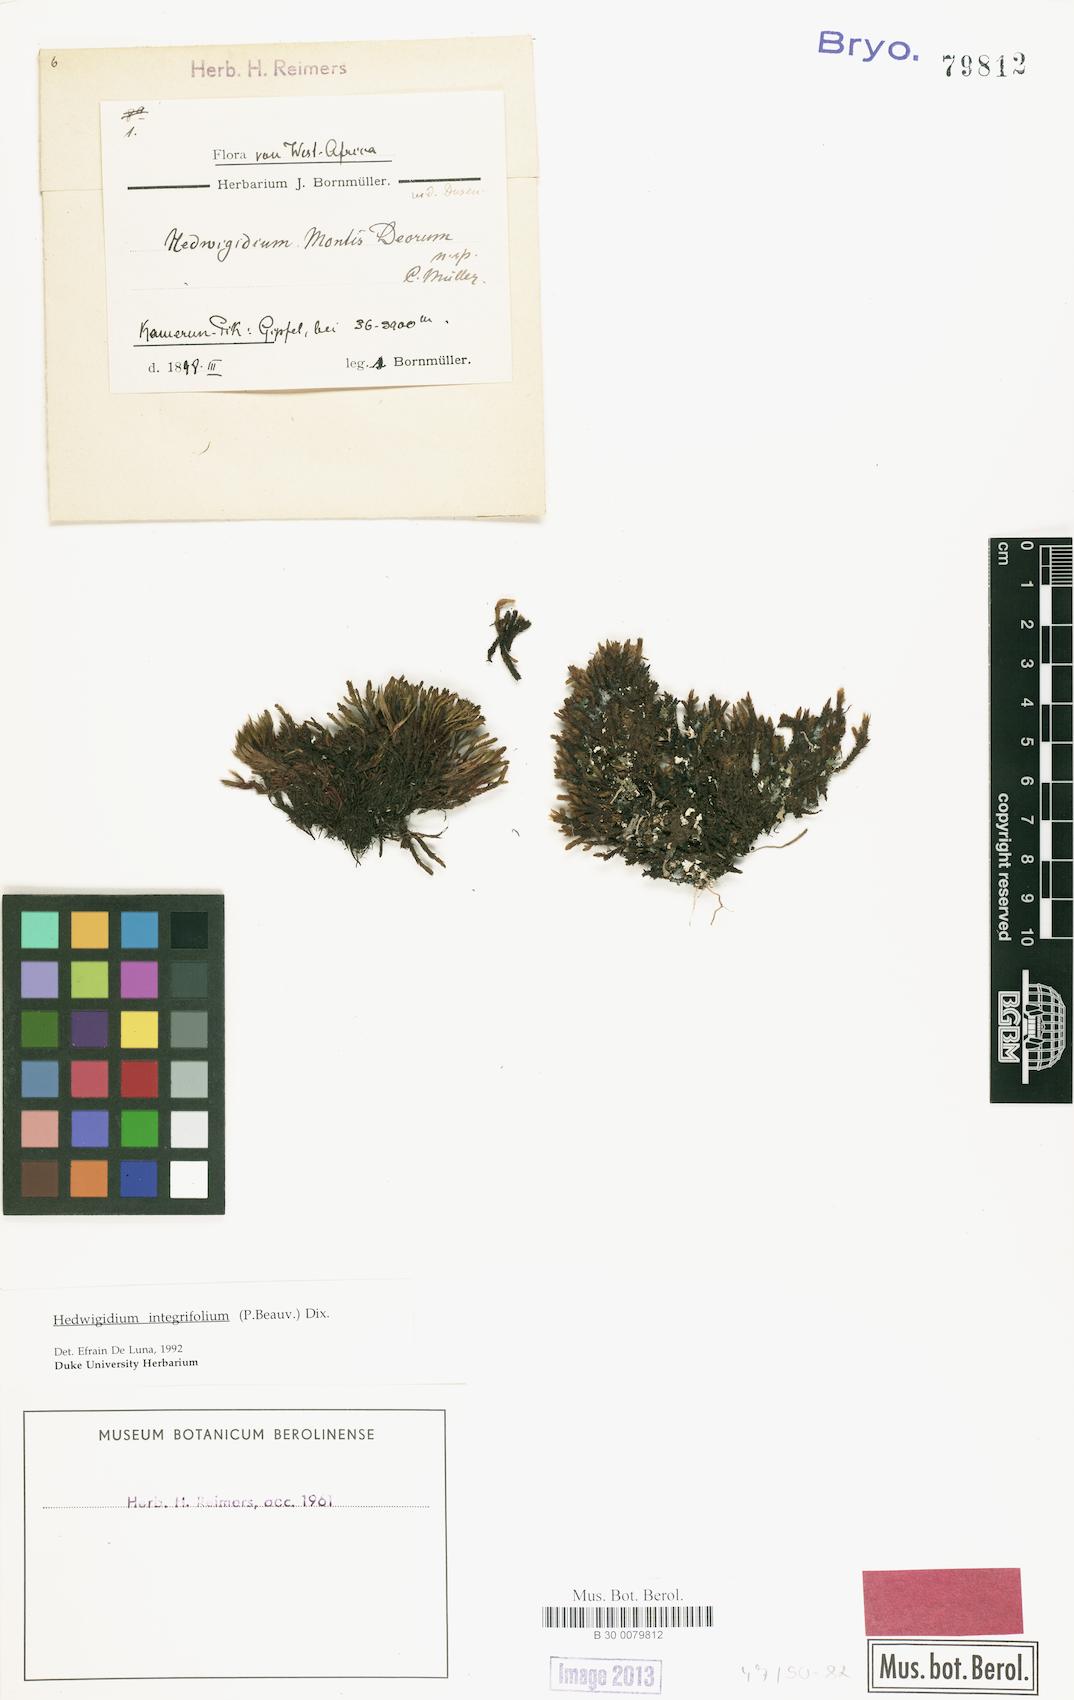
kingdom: Plantae
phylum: Bryophyta
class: Bryopsida
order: Hedwigiales
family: Hedwigiaceae
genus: Hedwigia
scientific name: Hedwigia filiformis
